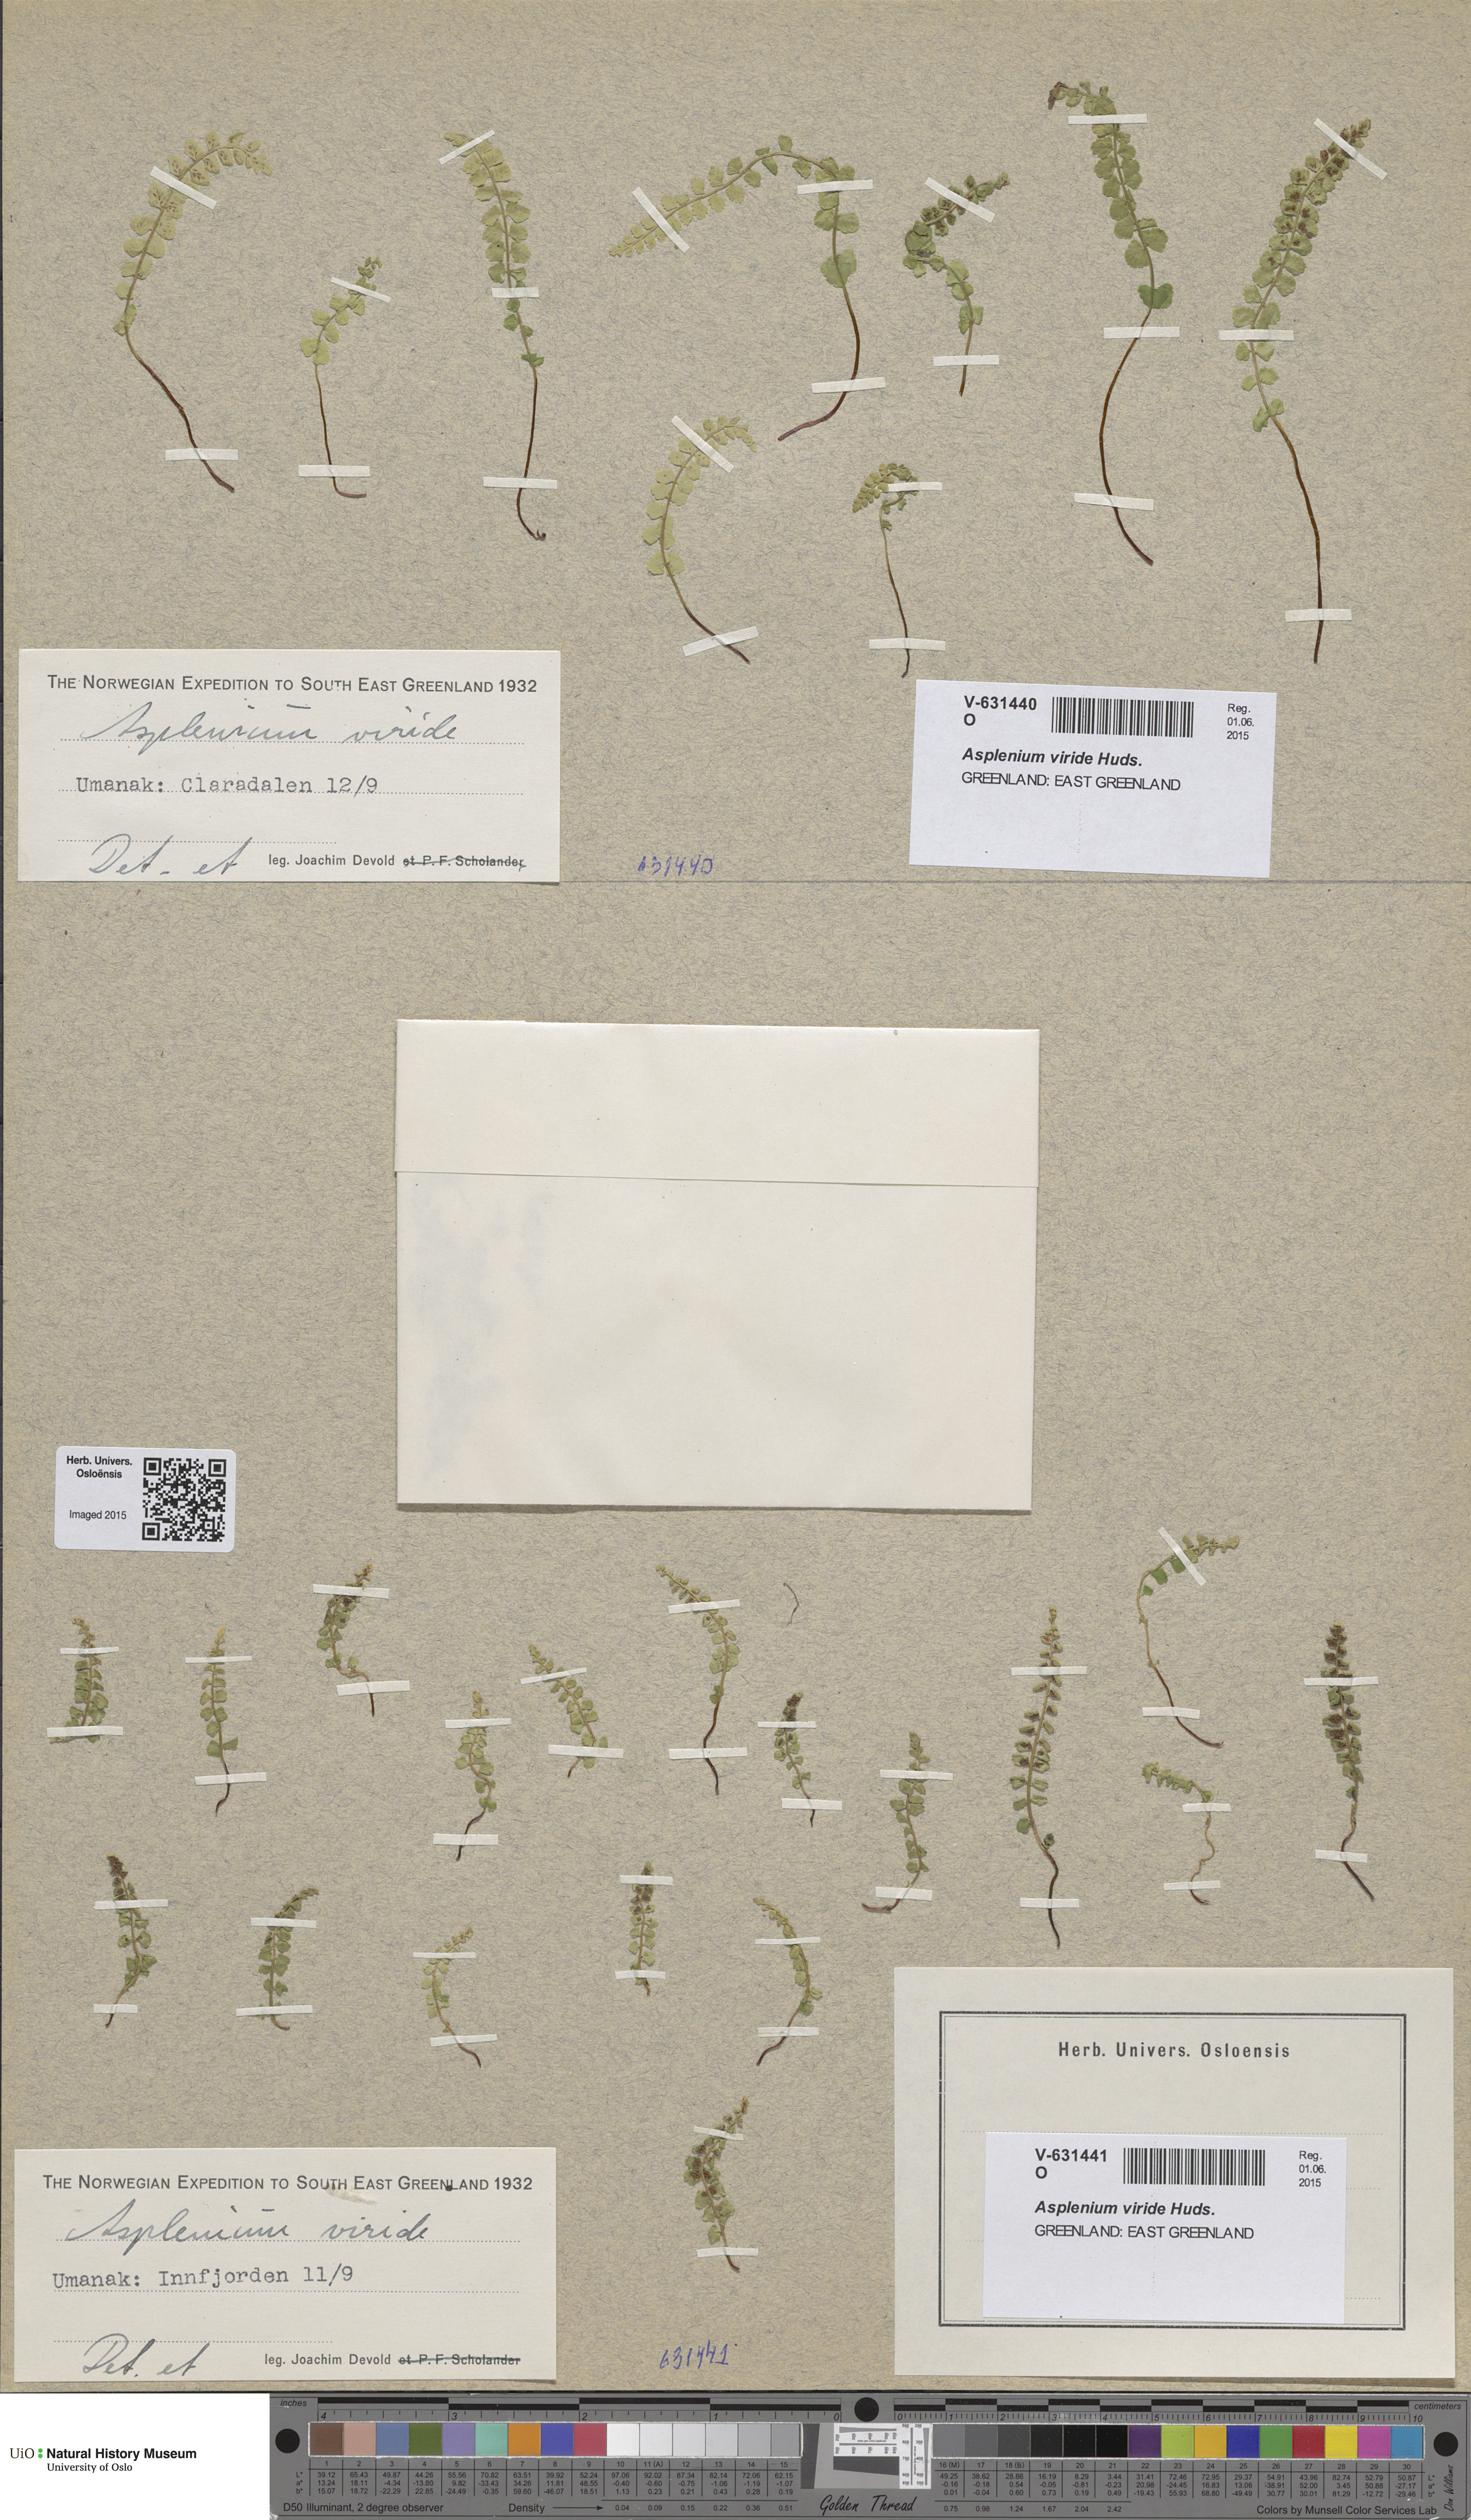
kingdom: Plantae
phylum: Tracheophyta
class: Polypodiopsida
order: Polypodiales
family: Aspleniaceae
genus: Asplenium
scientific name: Asplenium viride
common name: Green spleenwort
